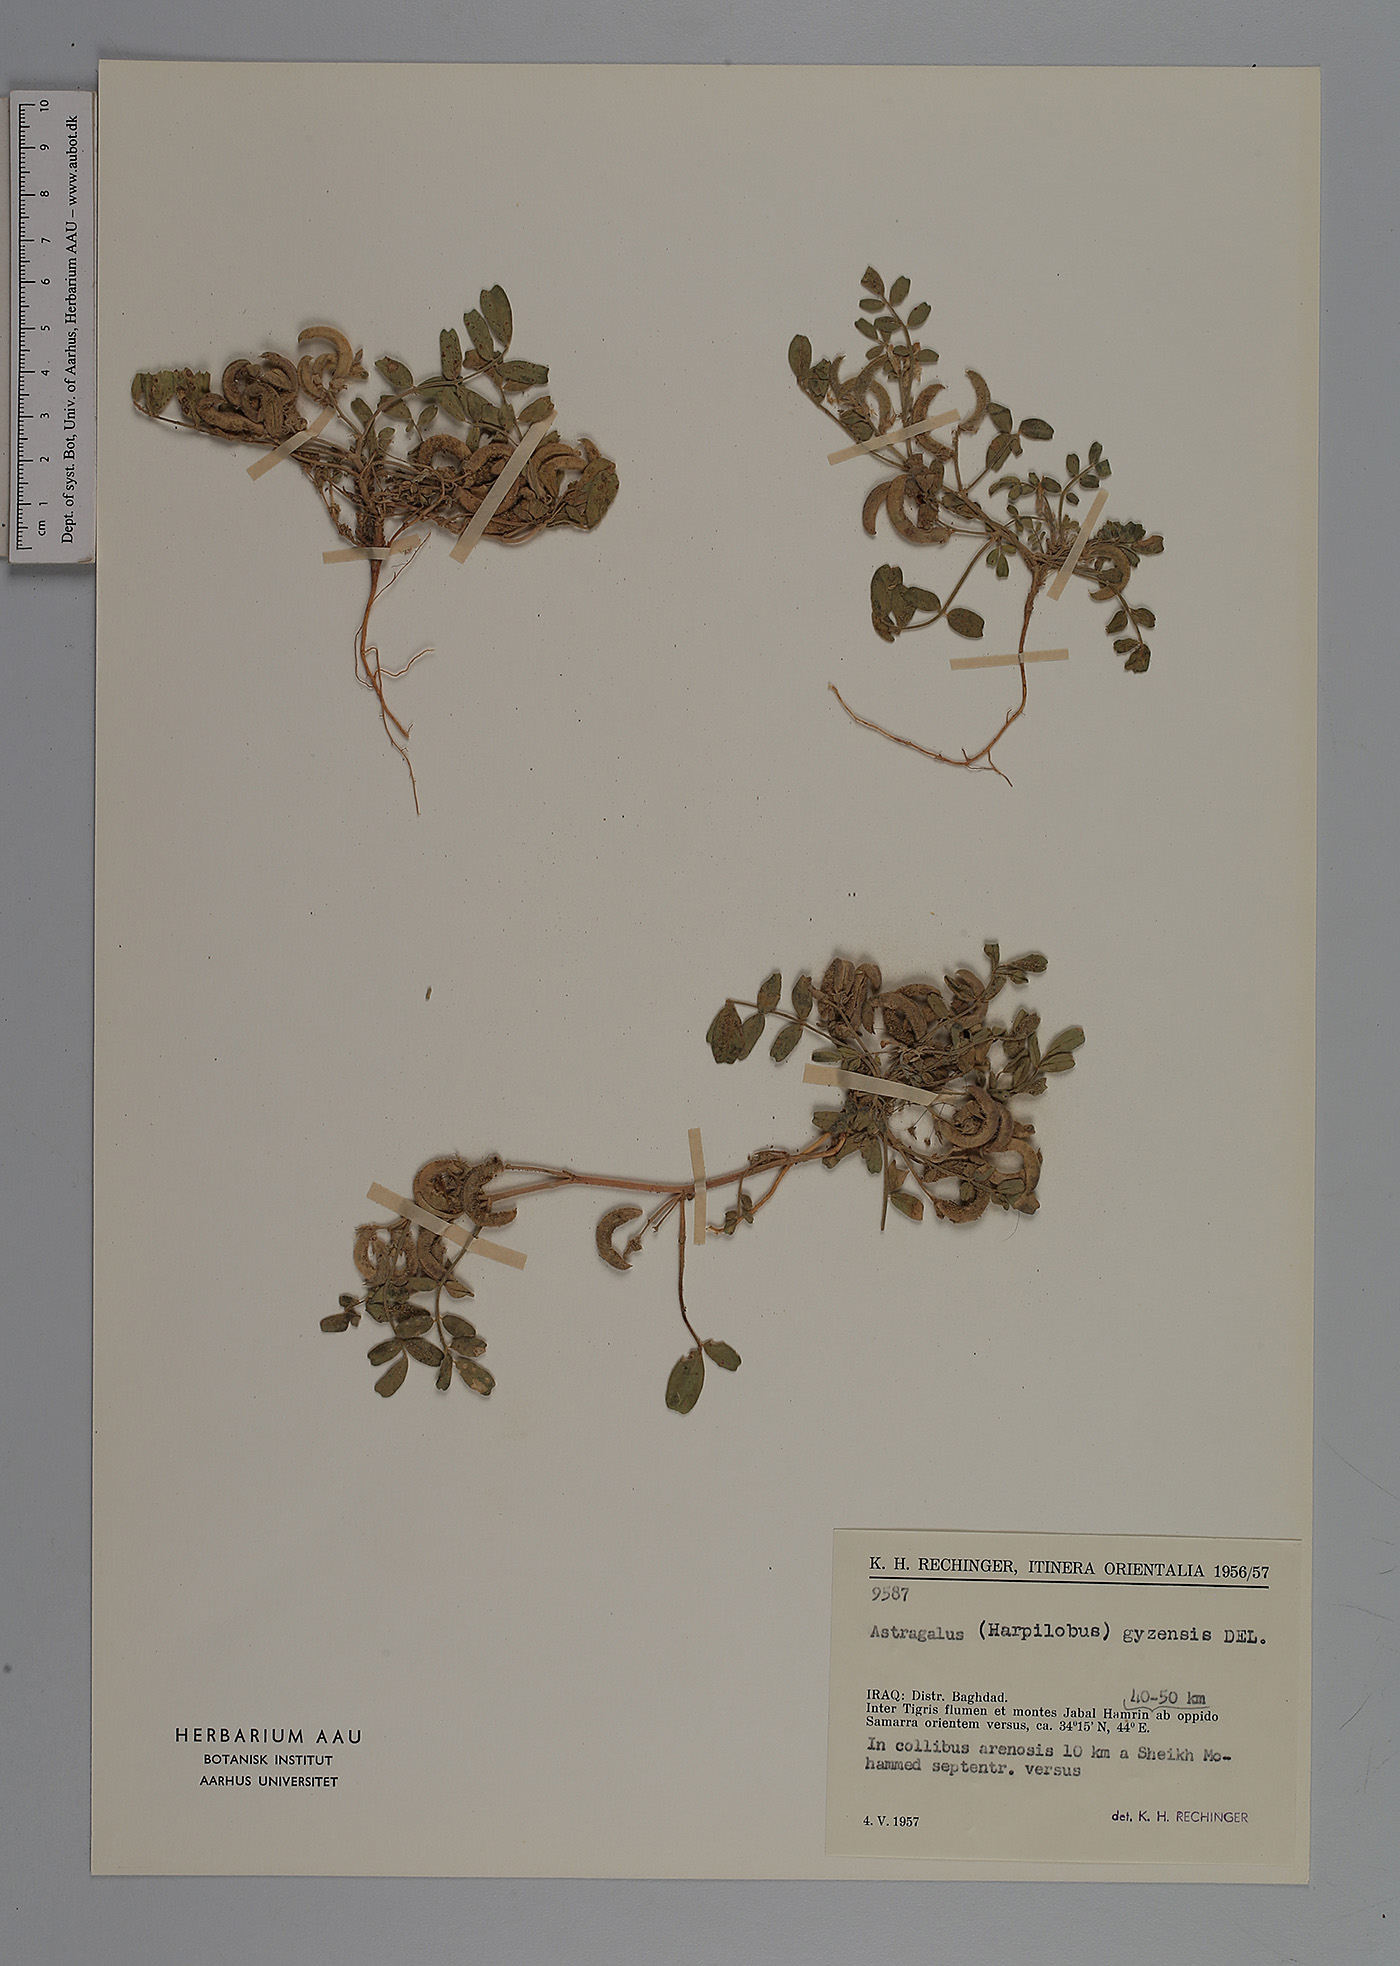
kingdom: Plantae
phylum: Tracheophyta
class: Magnoliopsida
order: Fabales
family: Fabaceae
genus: Astragalus
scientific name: Astragalus arpilobus
